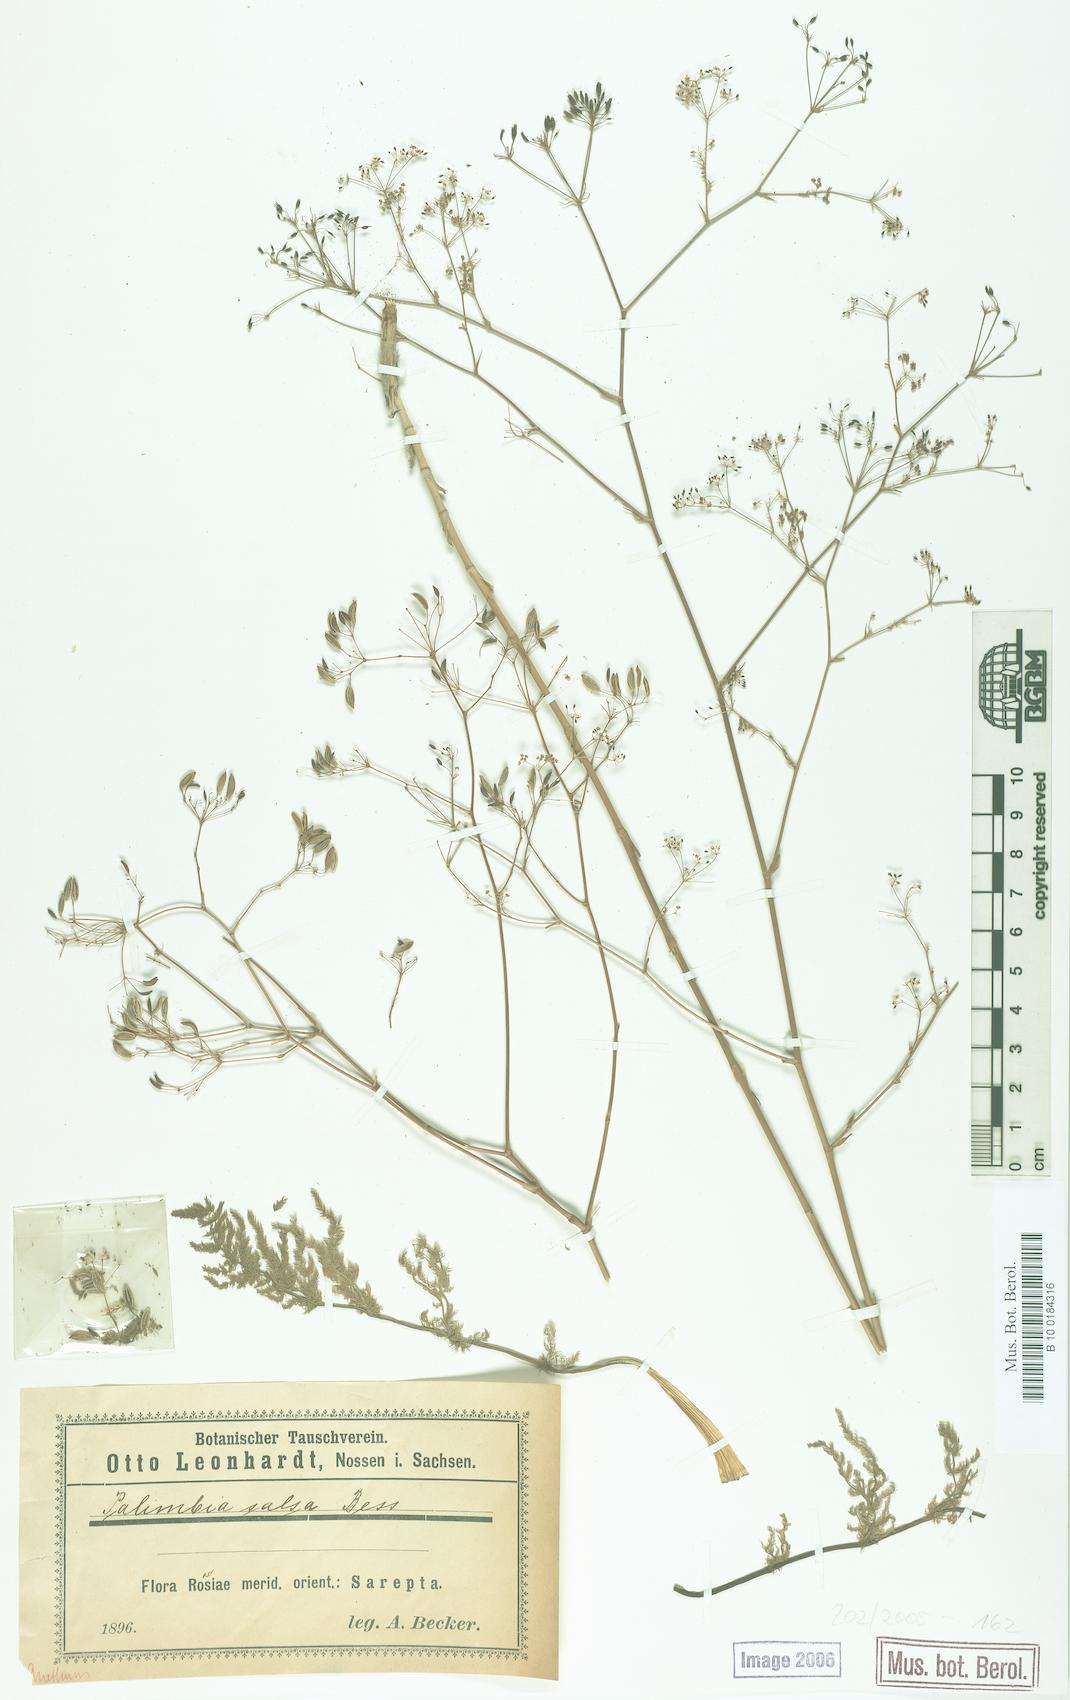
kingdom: Plantae
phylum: Tracheophyta
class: Magnoliopsida
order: Apiales
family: Apiaceae
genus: Palimbia
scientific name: Palimbia rediviva
